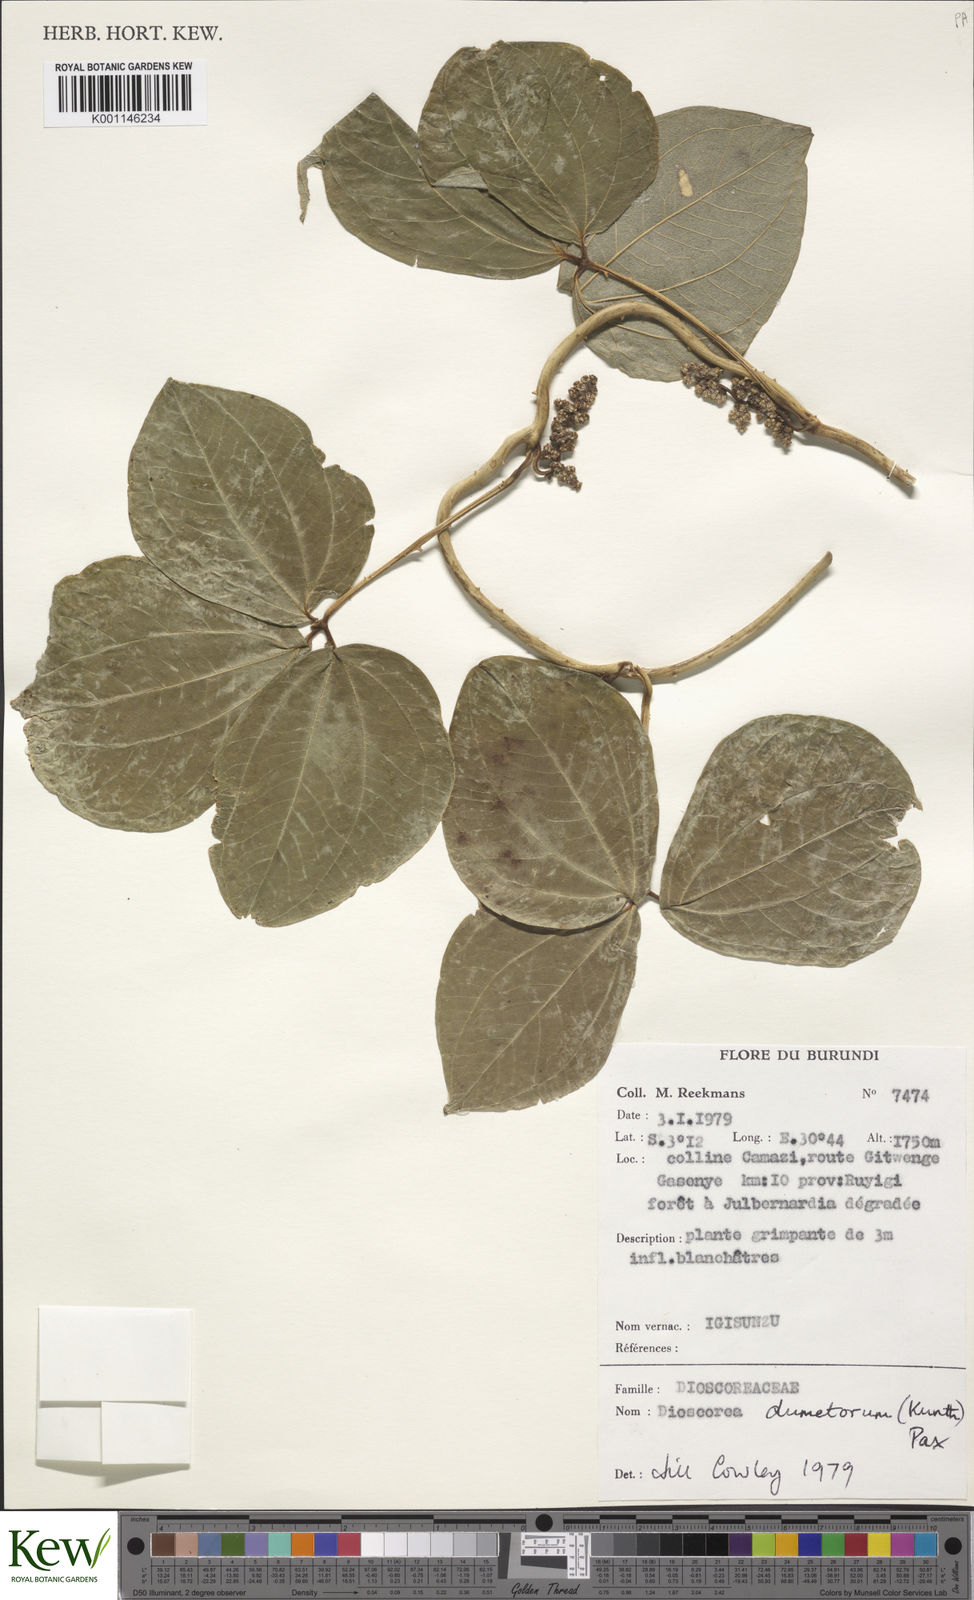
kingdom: Plantae
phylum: Tracheophyta
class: Liliopsida
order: Dioscoreales
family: Dioscoreaceae
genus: Dioscorea
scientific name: Dioscorea dumetorum
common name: African bitter yam
